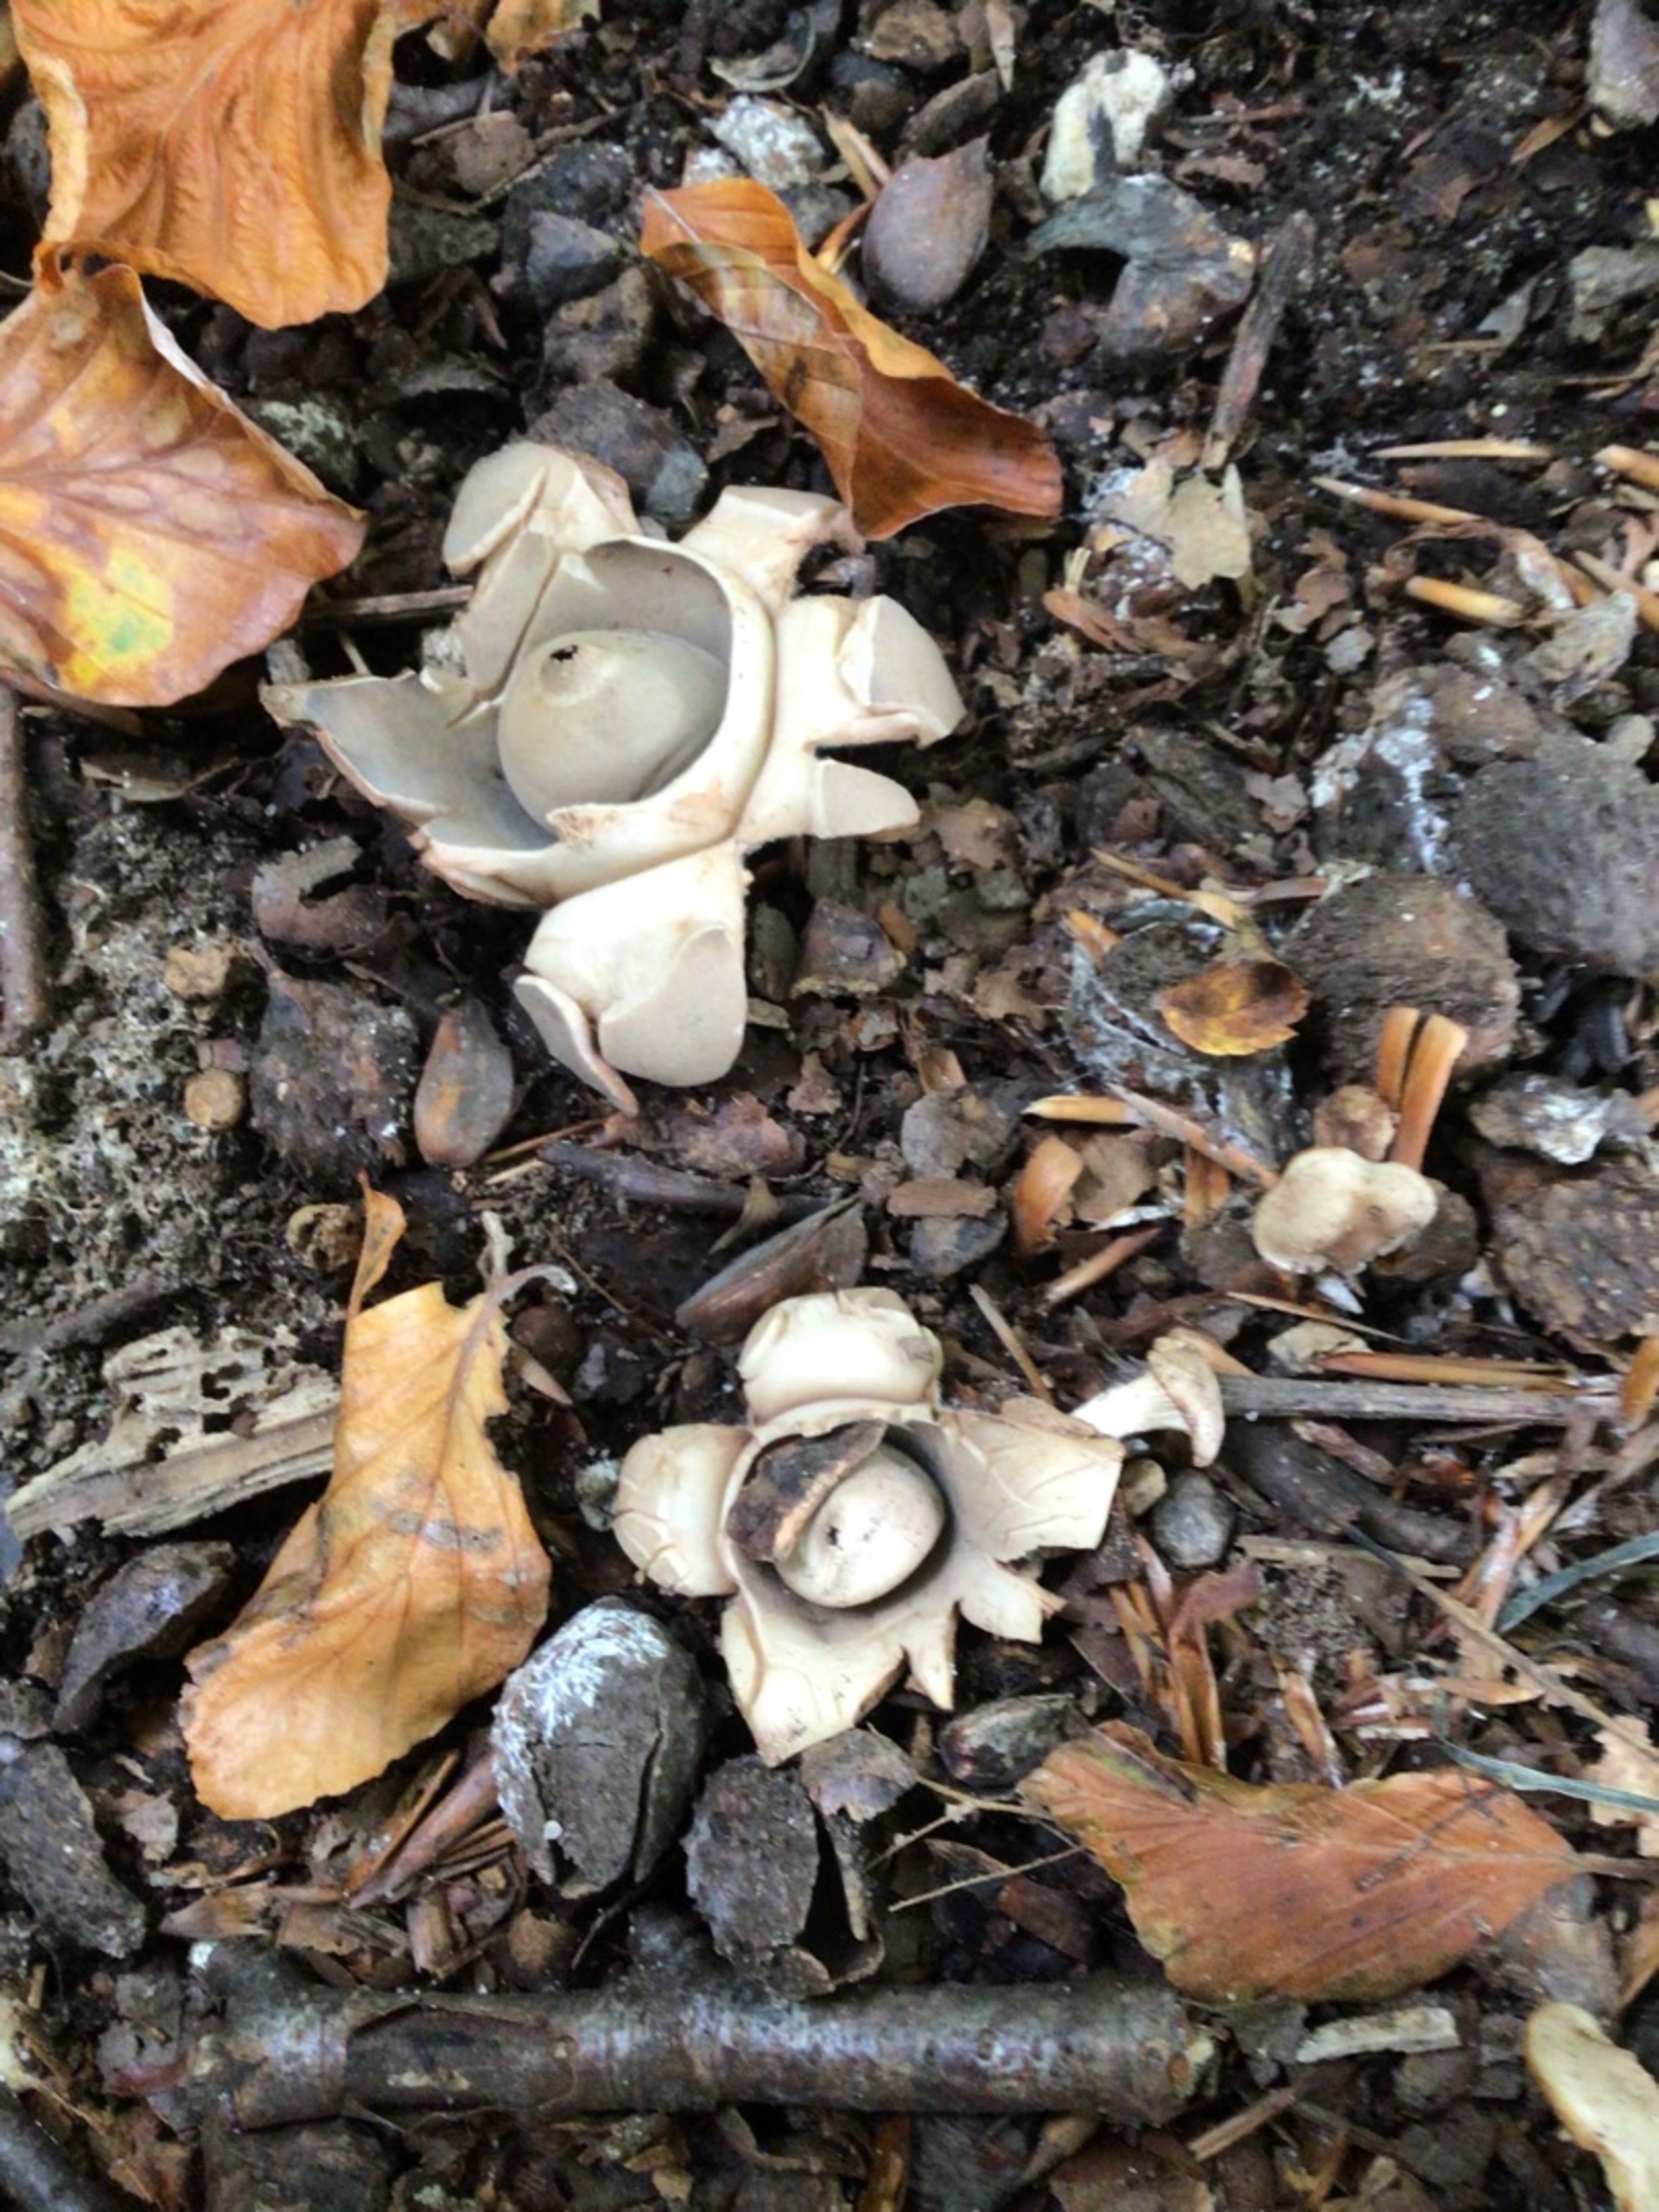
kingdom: Fungi
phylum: Basidiomycota
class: Agaricomycetes
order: Geastrales
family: Geastraceae
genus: Geastrum
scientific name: Geastrum michelianum
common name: Kødet stjernebold
